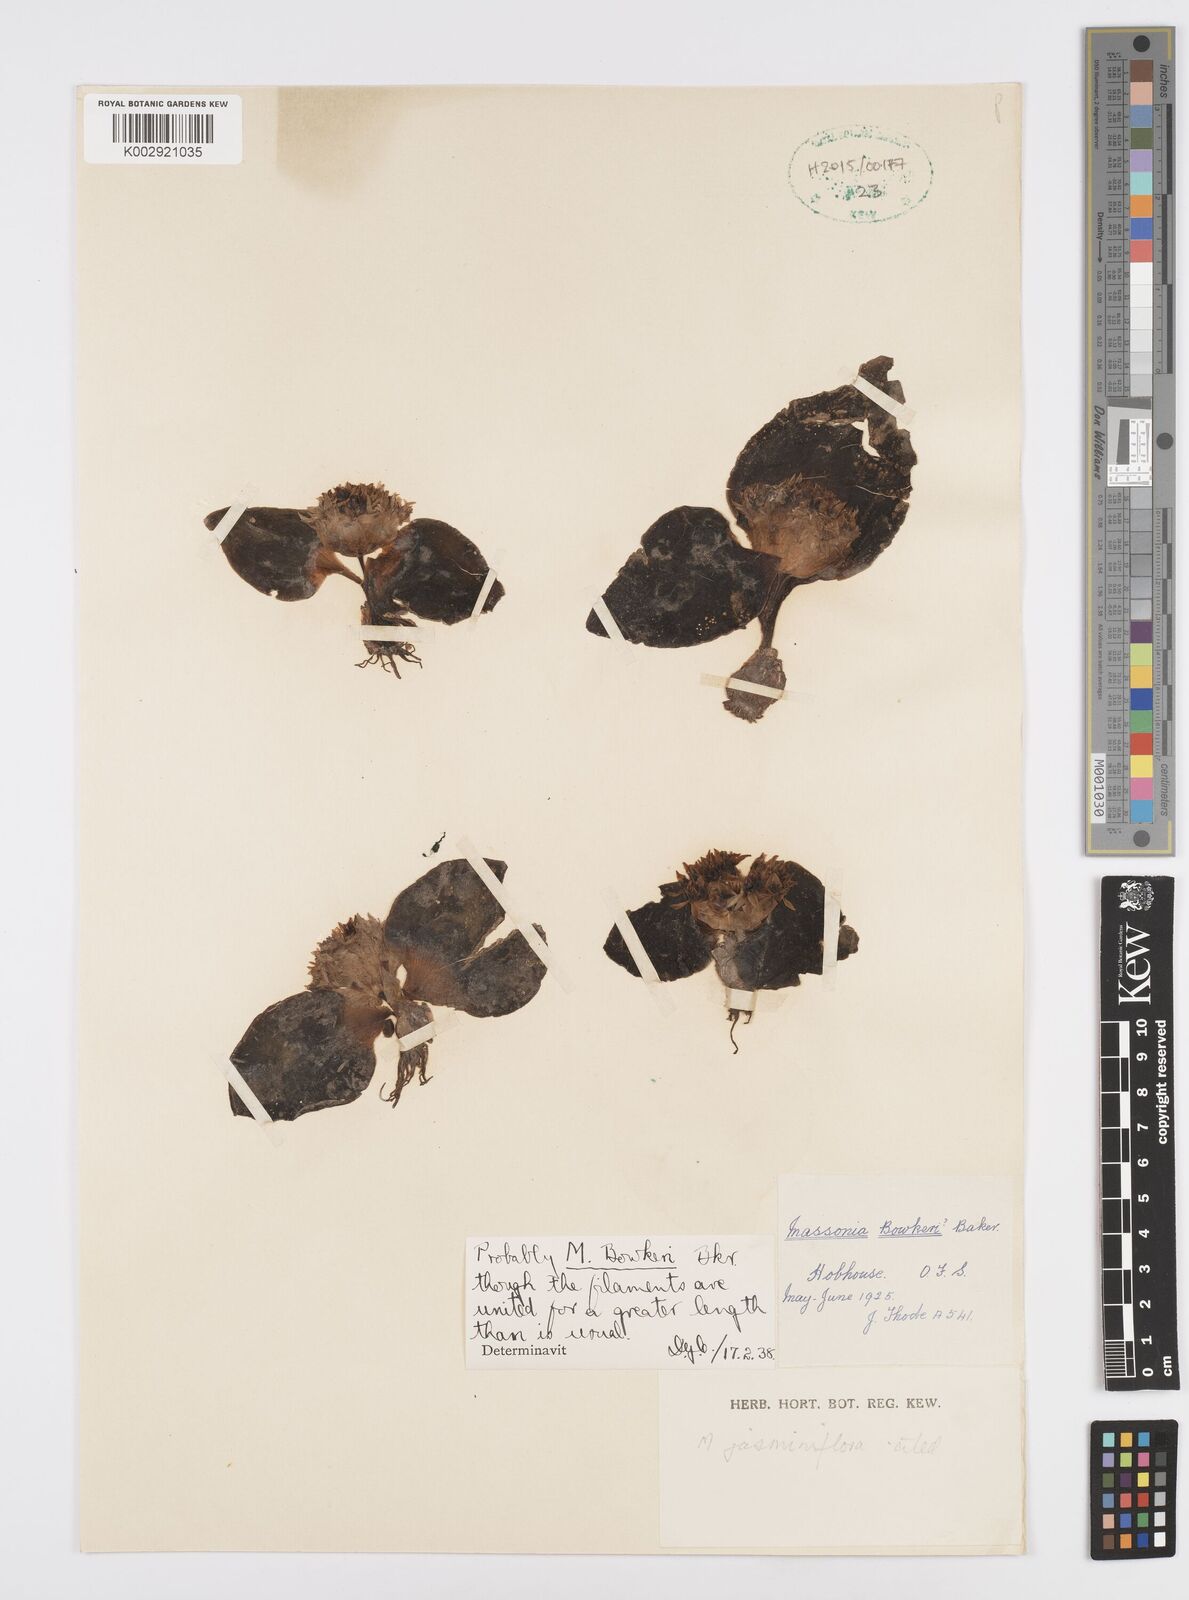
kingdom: Plantae
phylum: Tracheophyta
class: Liliopsida
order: Asparagales
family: Asparagaceae
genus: Massonia
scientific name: Massonia jasminiflora
